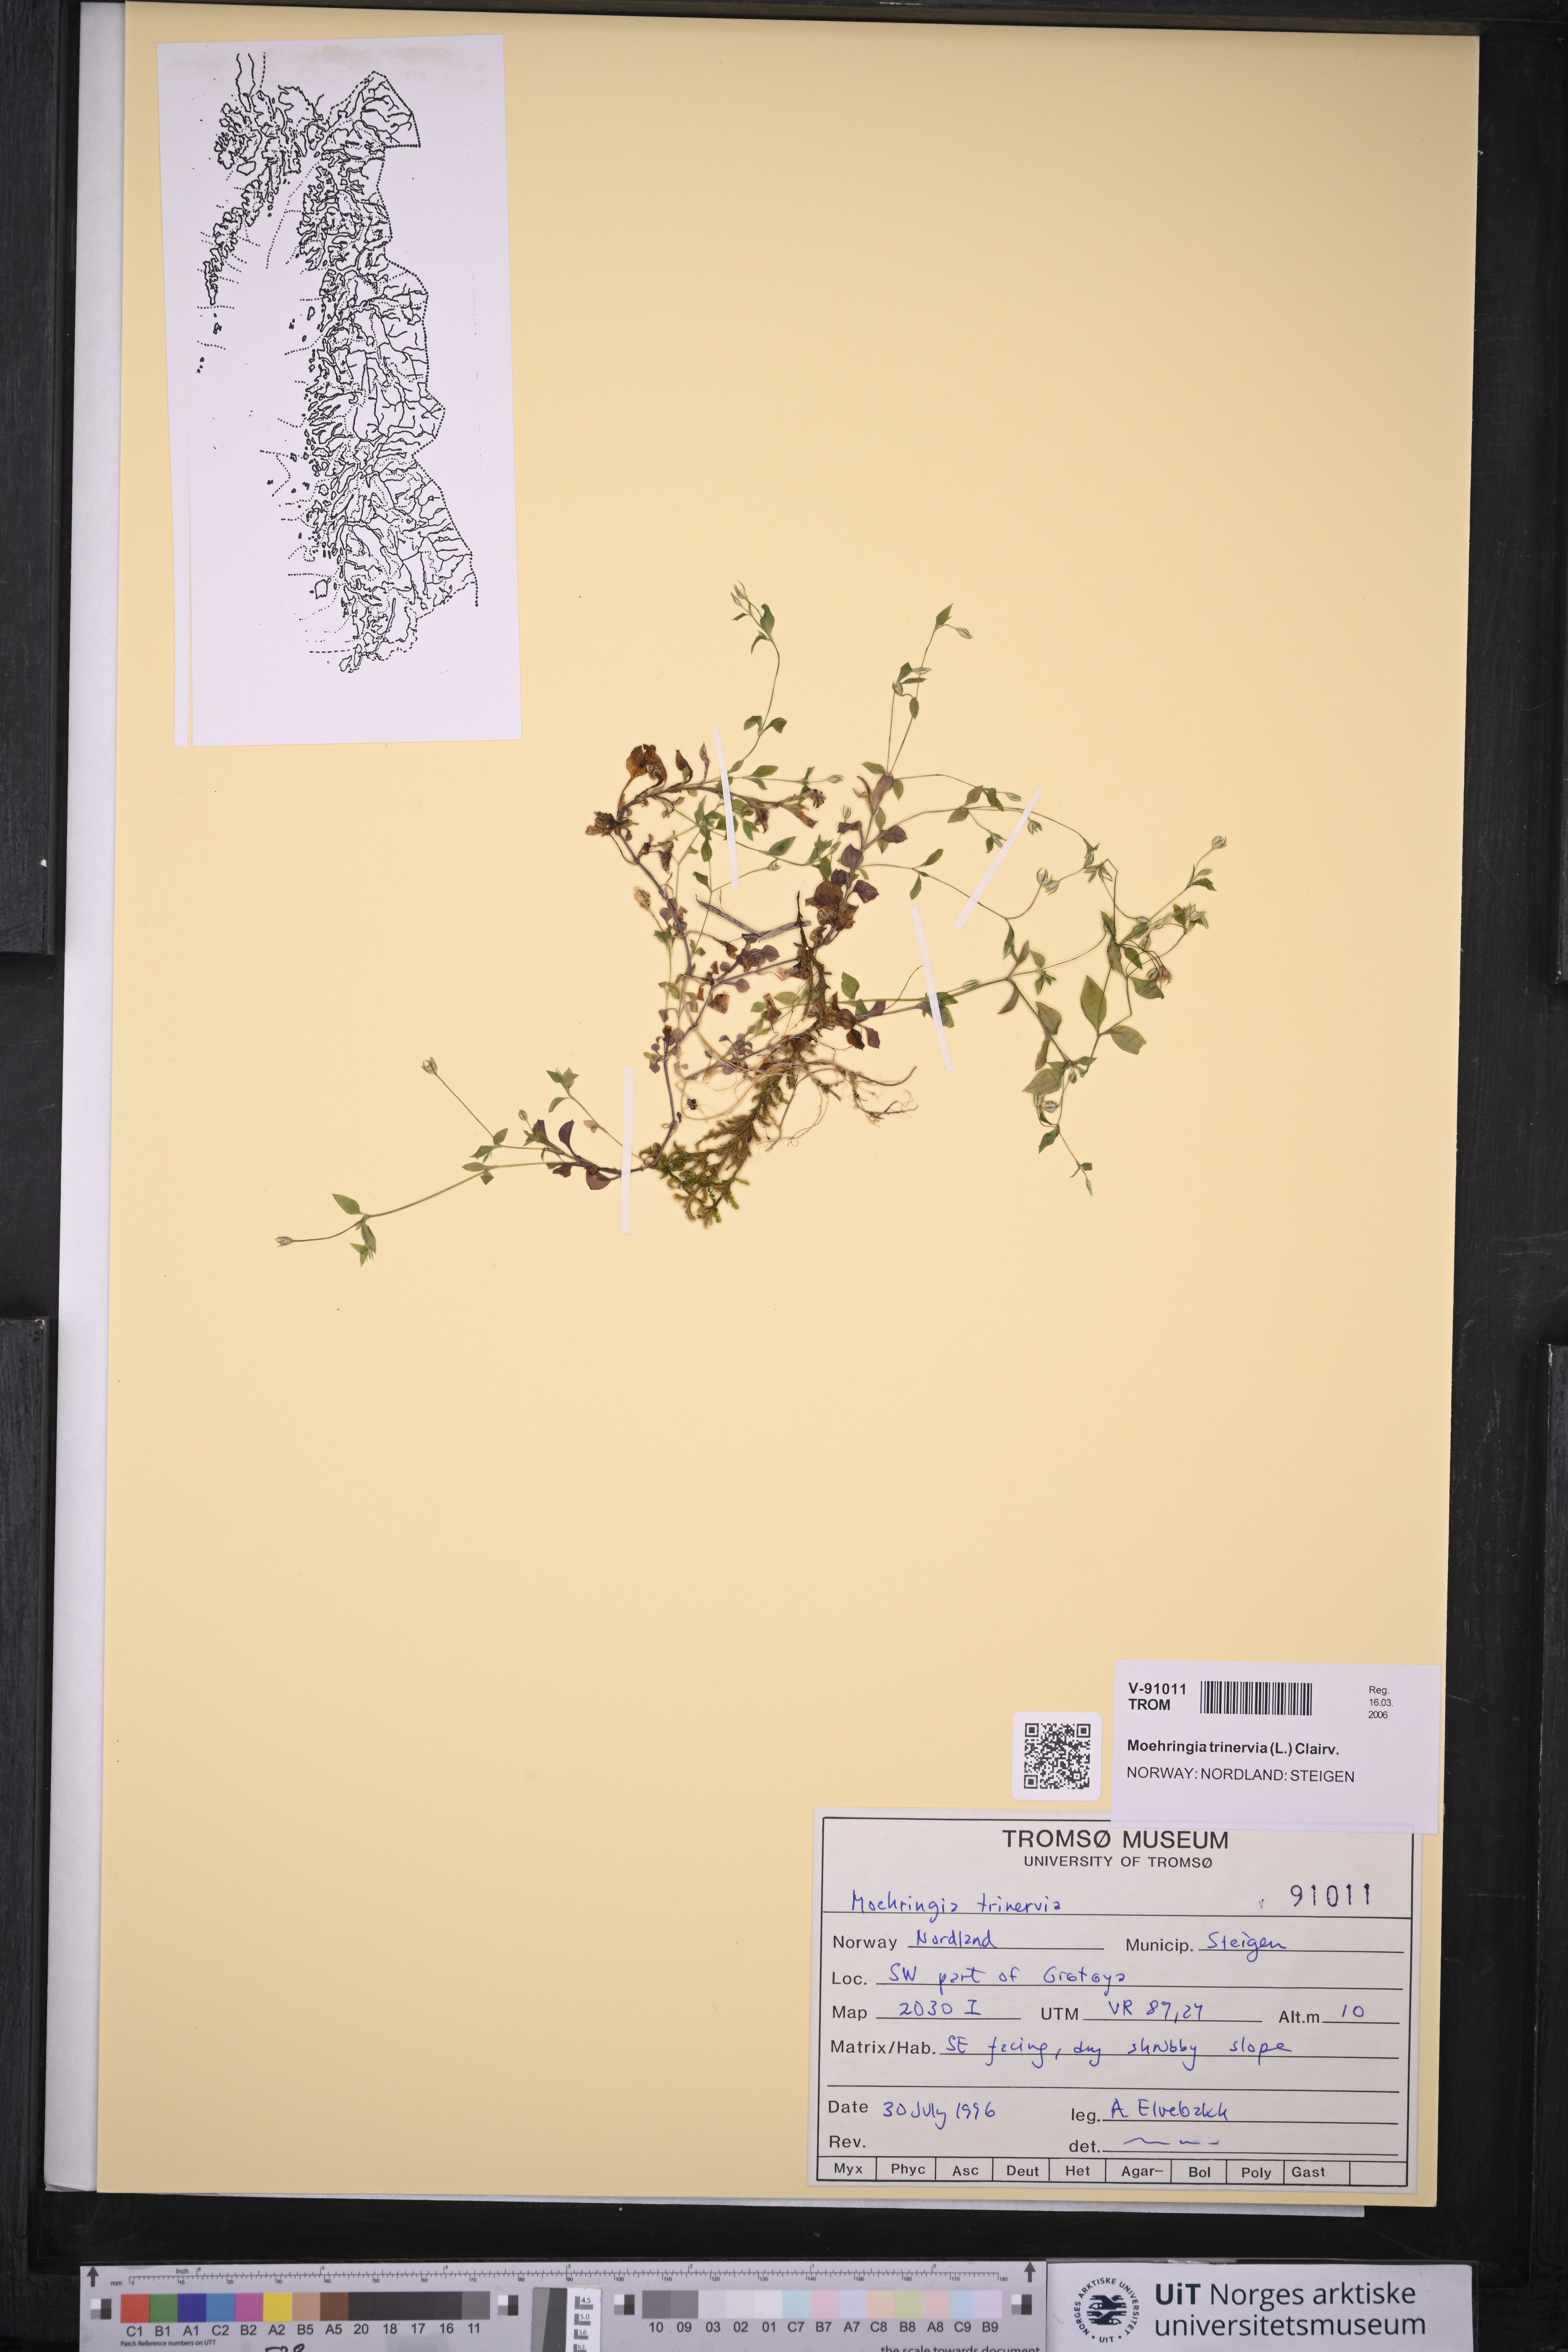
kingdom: Plantae
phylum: Tracheophyta
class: Magnoliopsida
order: Caryophyllales
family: Caryophyllaceae
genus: Moehringia
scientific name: Moehringia trinervia
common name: Three-nerved sandwort
